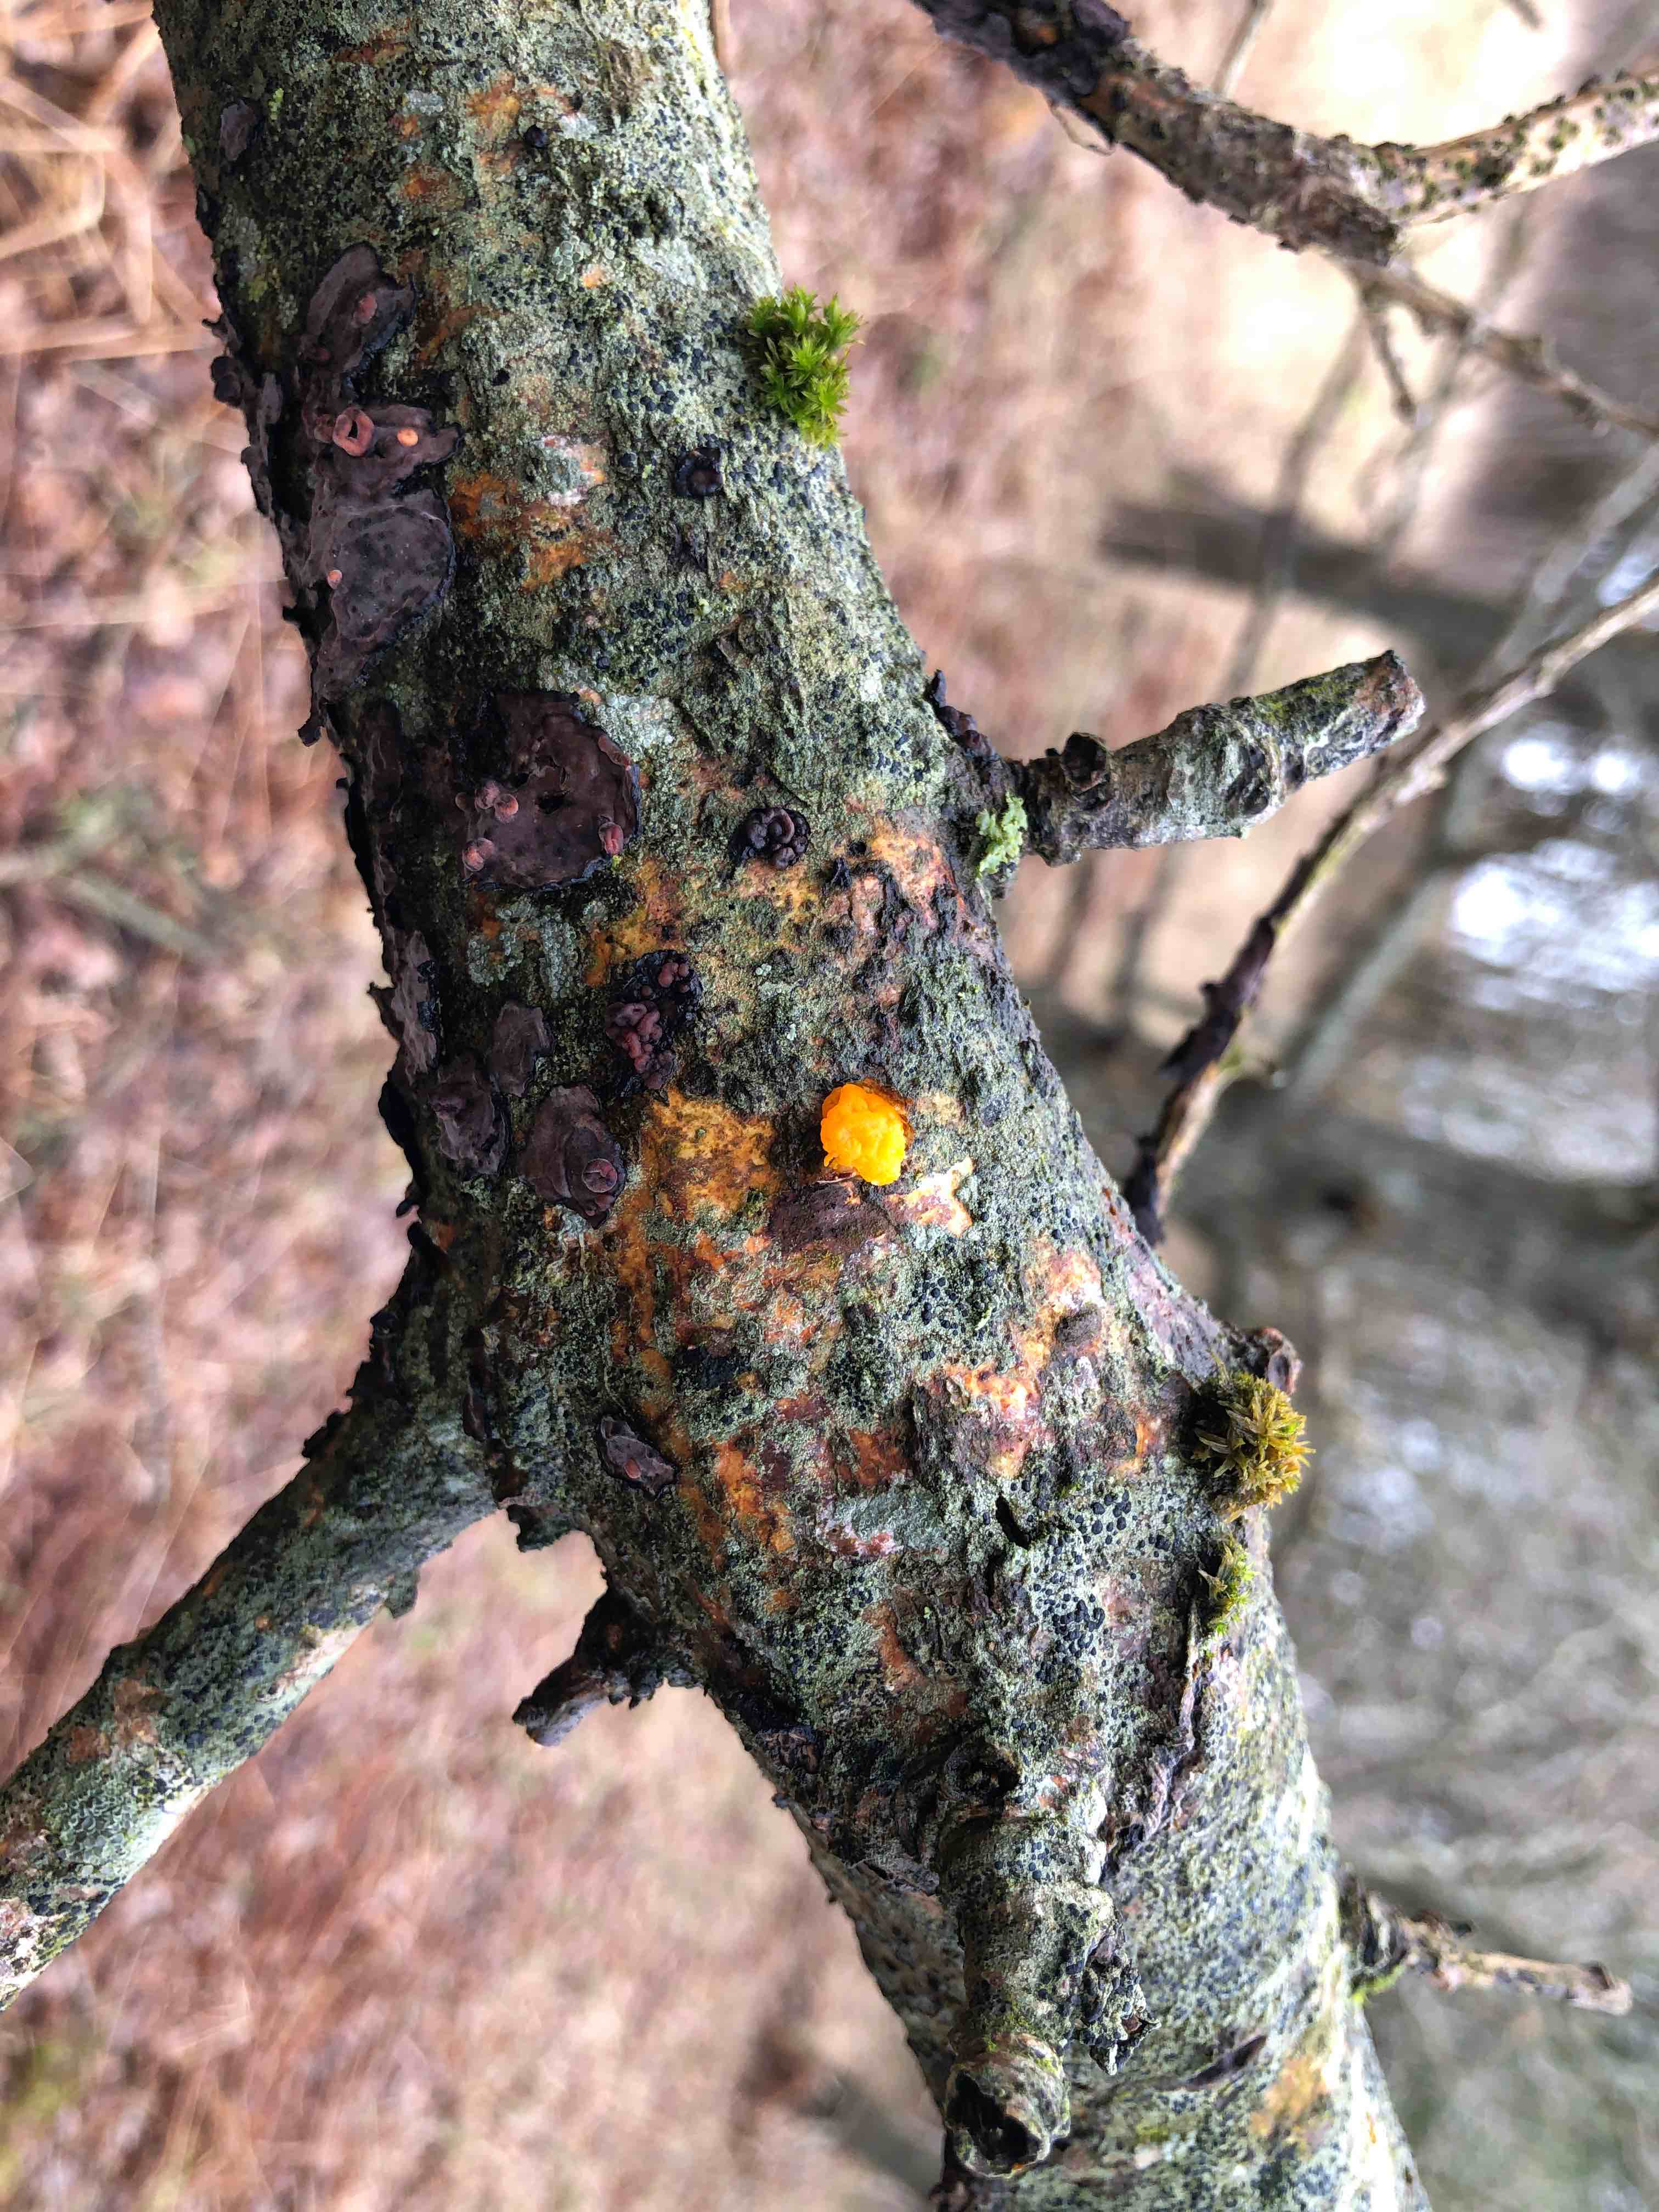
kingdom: Fungi
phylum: Basidiomycota
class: Tremellomycetes
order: Tremellales
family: Tremellaceae
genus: Tremella
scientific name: Tremella mesenterica
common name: gul bævresvamp
